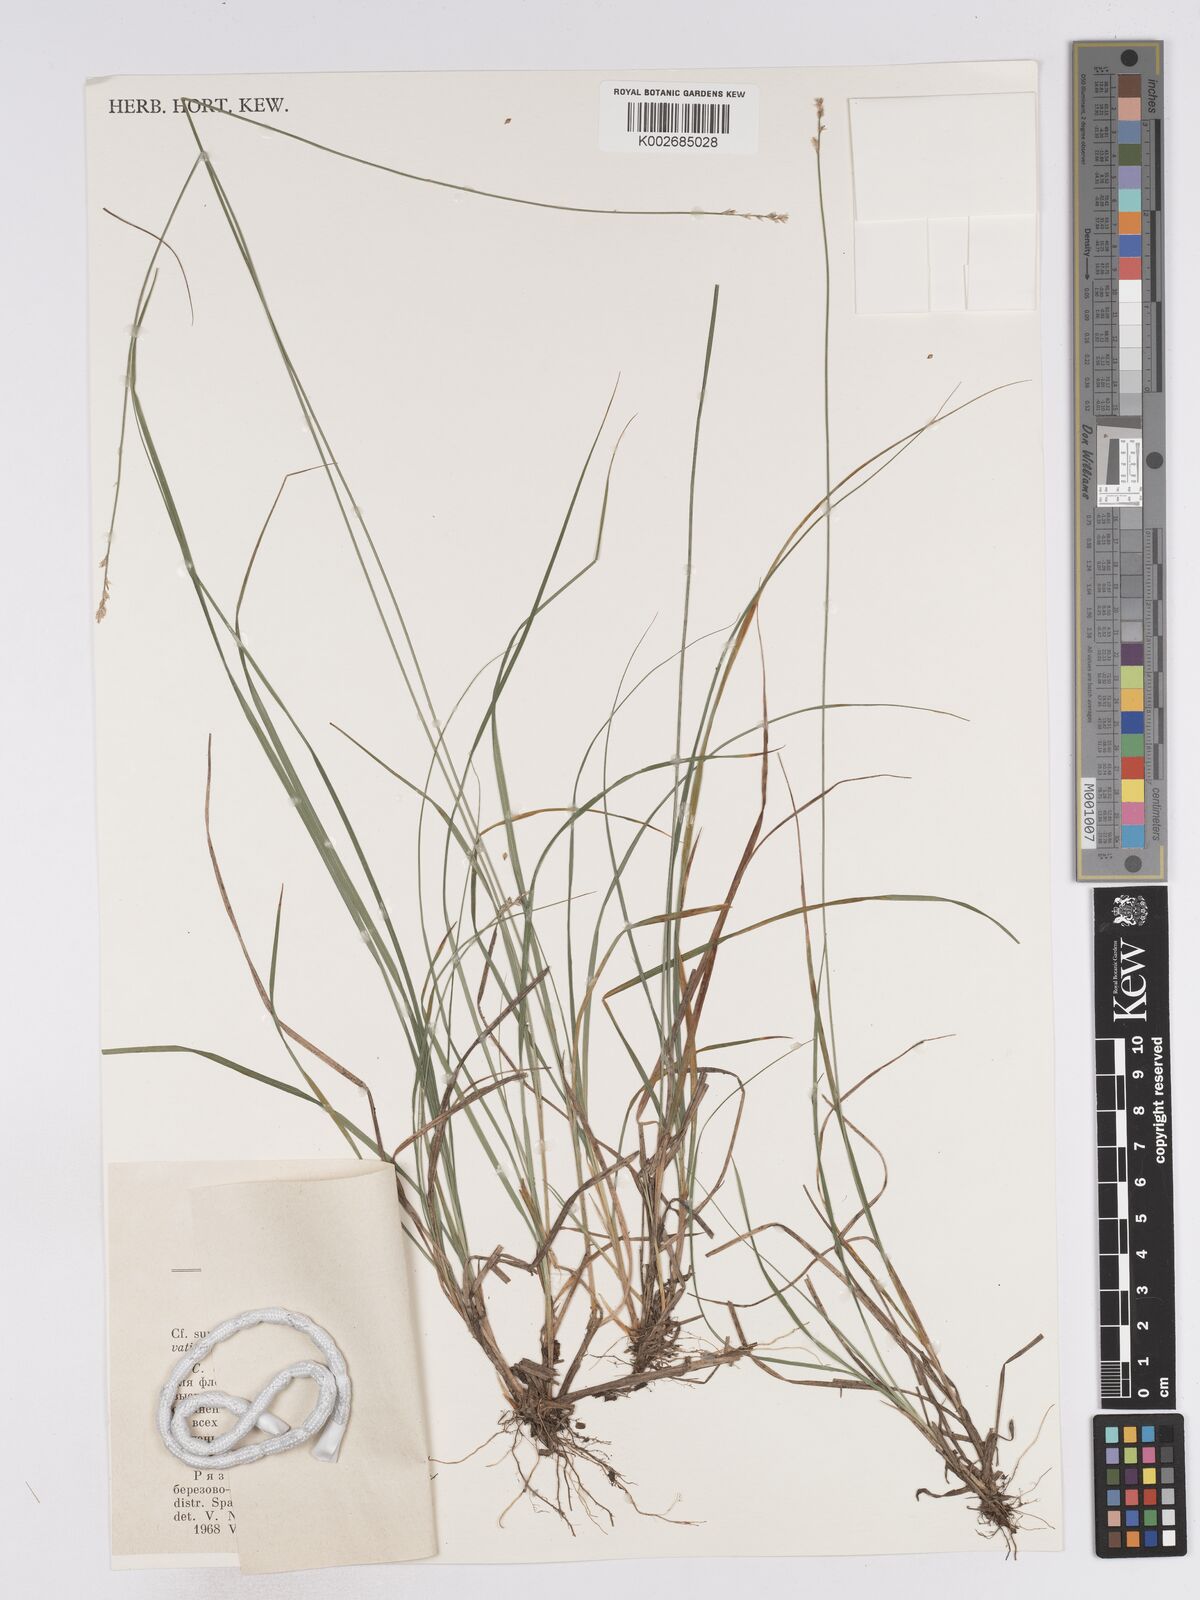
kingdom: Plantae
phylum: Tracheophyta
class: Liliopsida
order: Poales
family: Cyperaceae
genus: Carex
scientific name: Carex brunnescens
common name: Brown sedge
